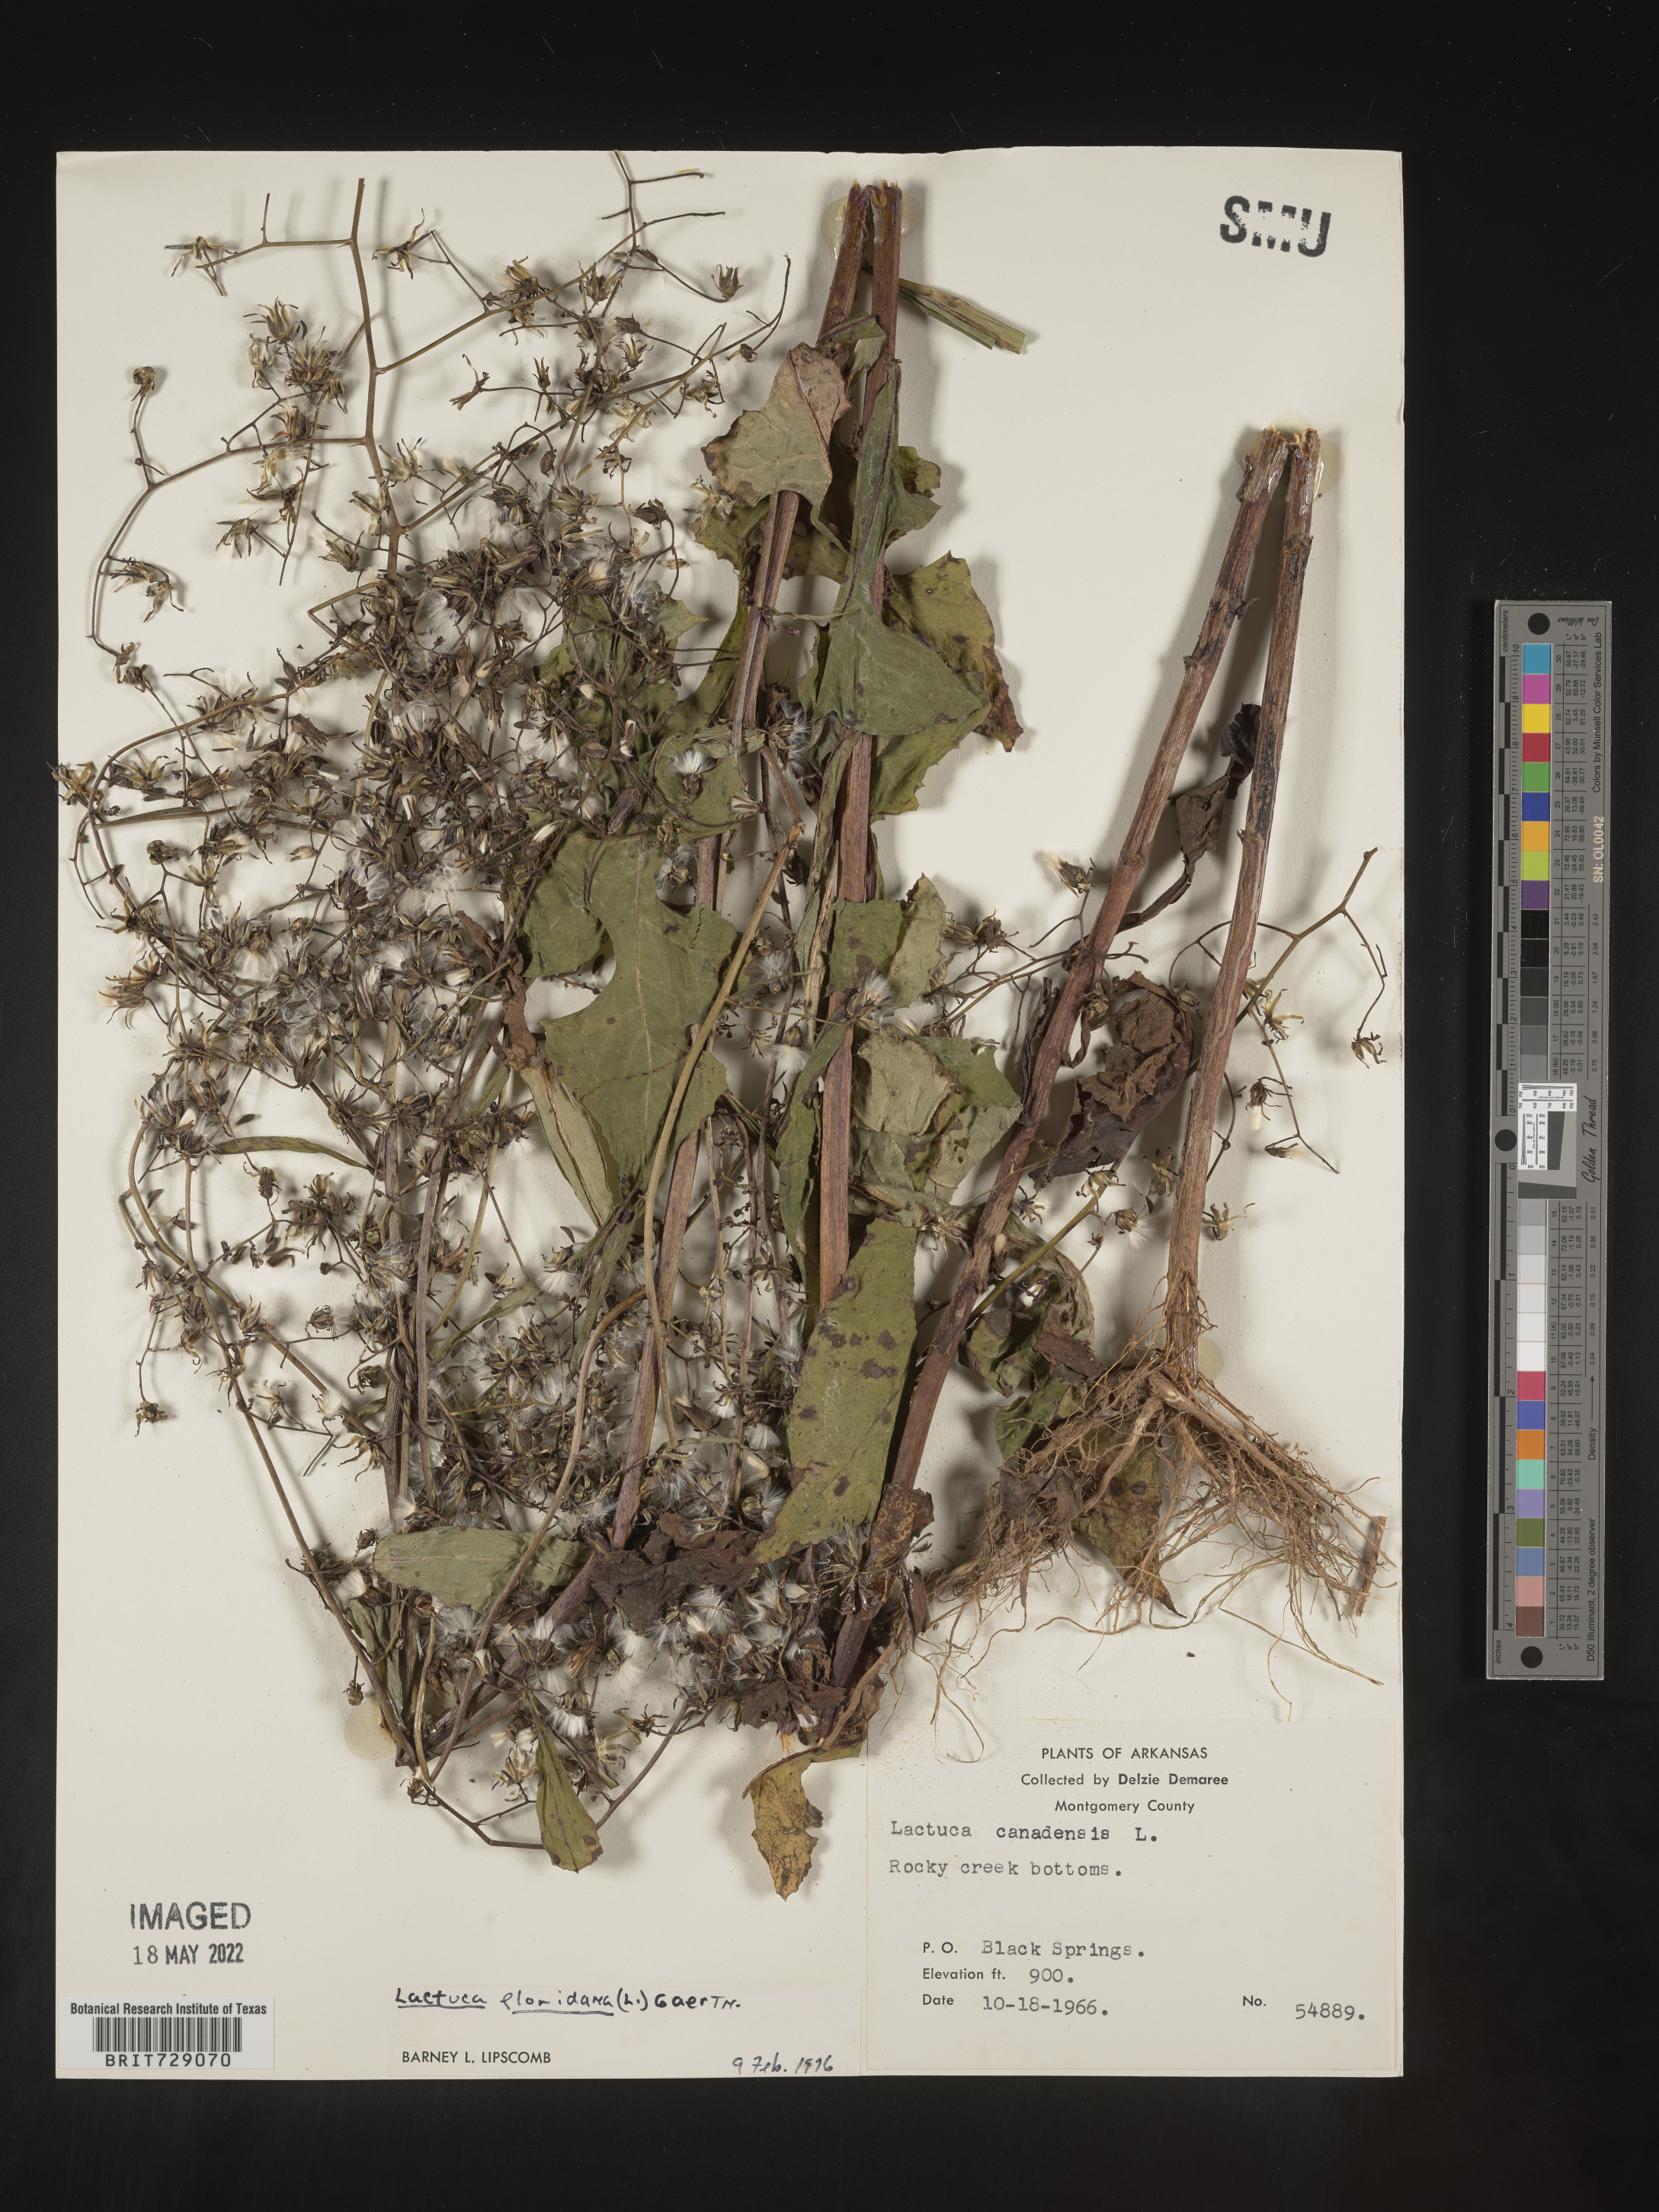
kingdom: Plantae
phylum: Tracheophyta
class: Magnoliopsida
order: Asterales
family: Asteraceae
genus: Lactuca
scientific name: Lactuca floridana
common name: Woodland lettuce
